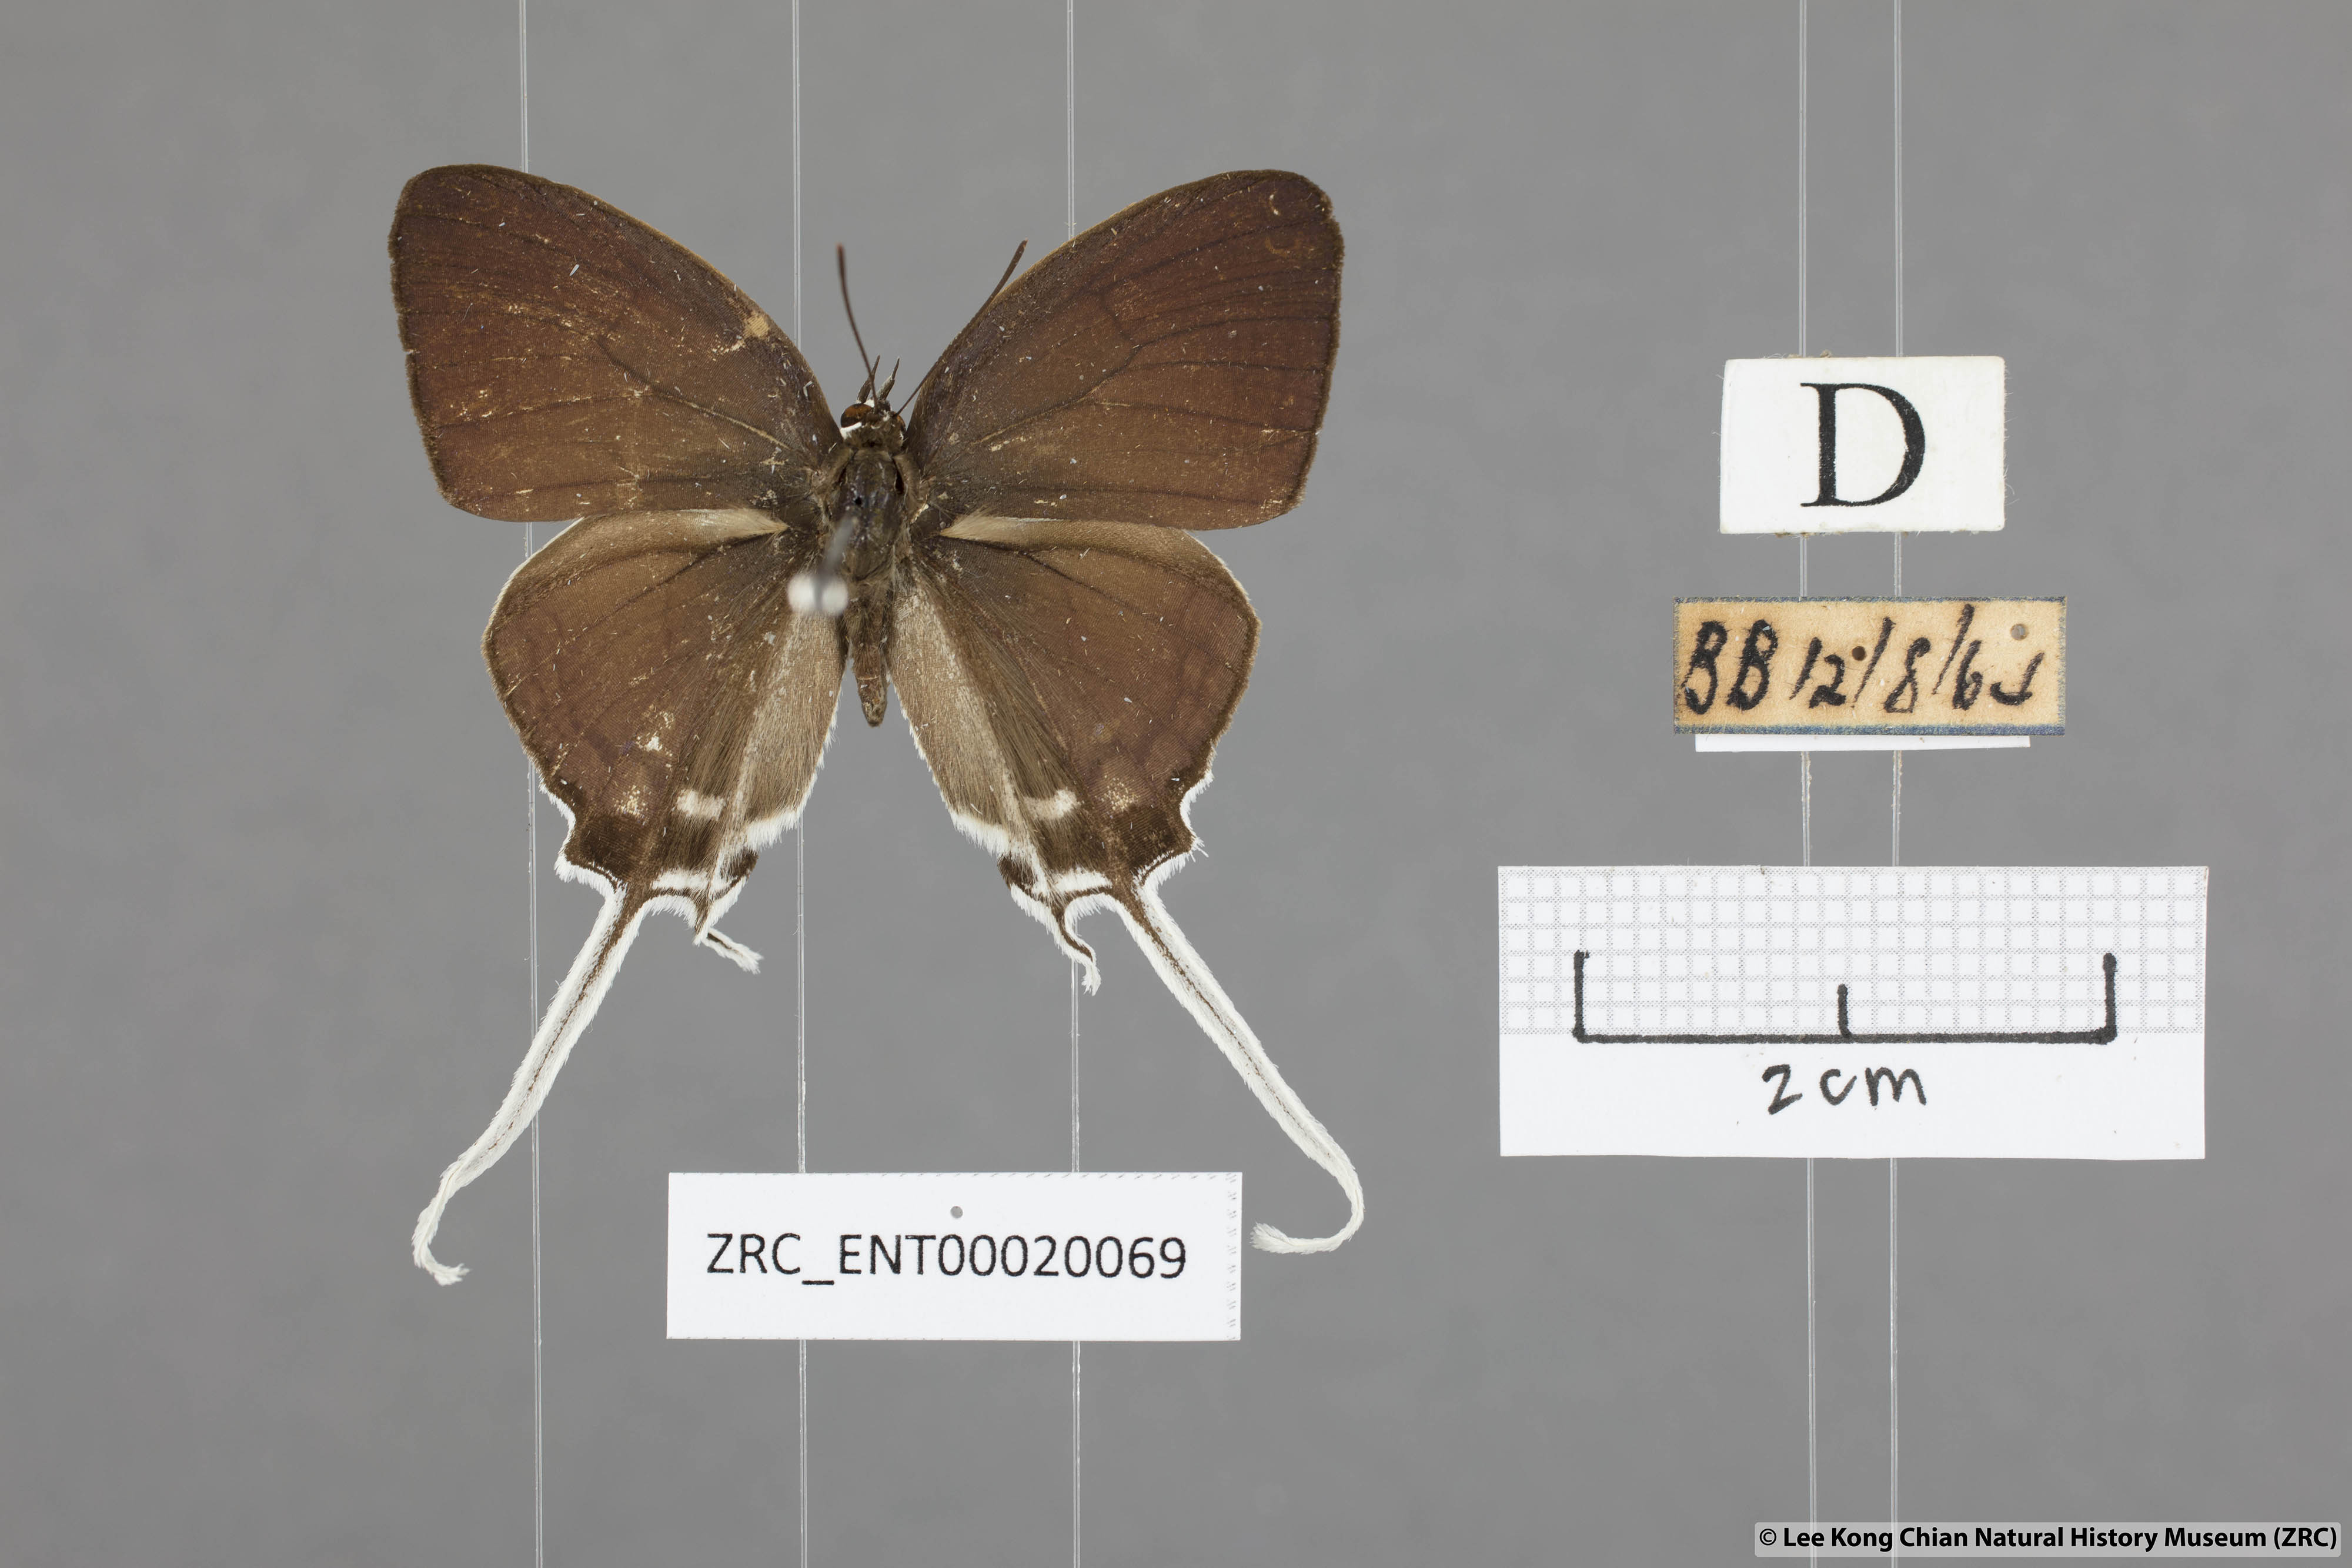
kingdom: Animalia
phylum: Arthropoda
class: Insecta
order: Lepidoptera
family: Lycaenidae
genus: Cheritra
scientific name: Cheritra freja
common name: Common imperial
